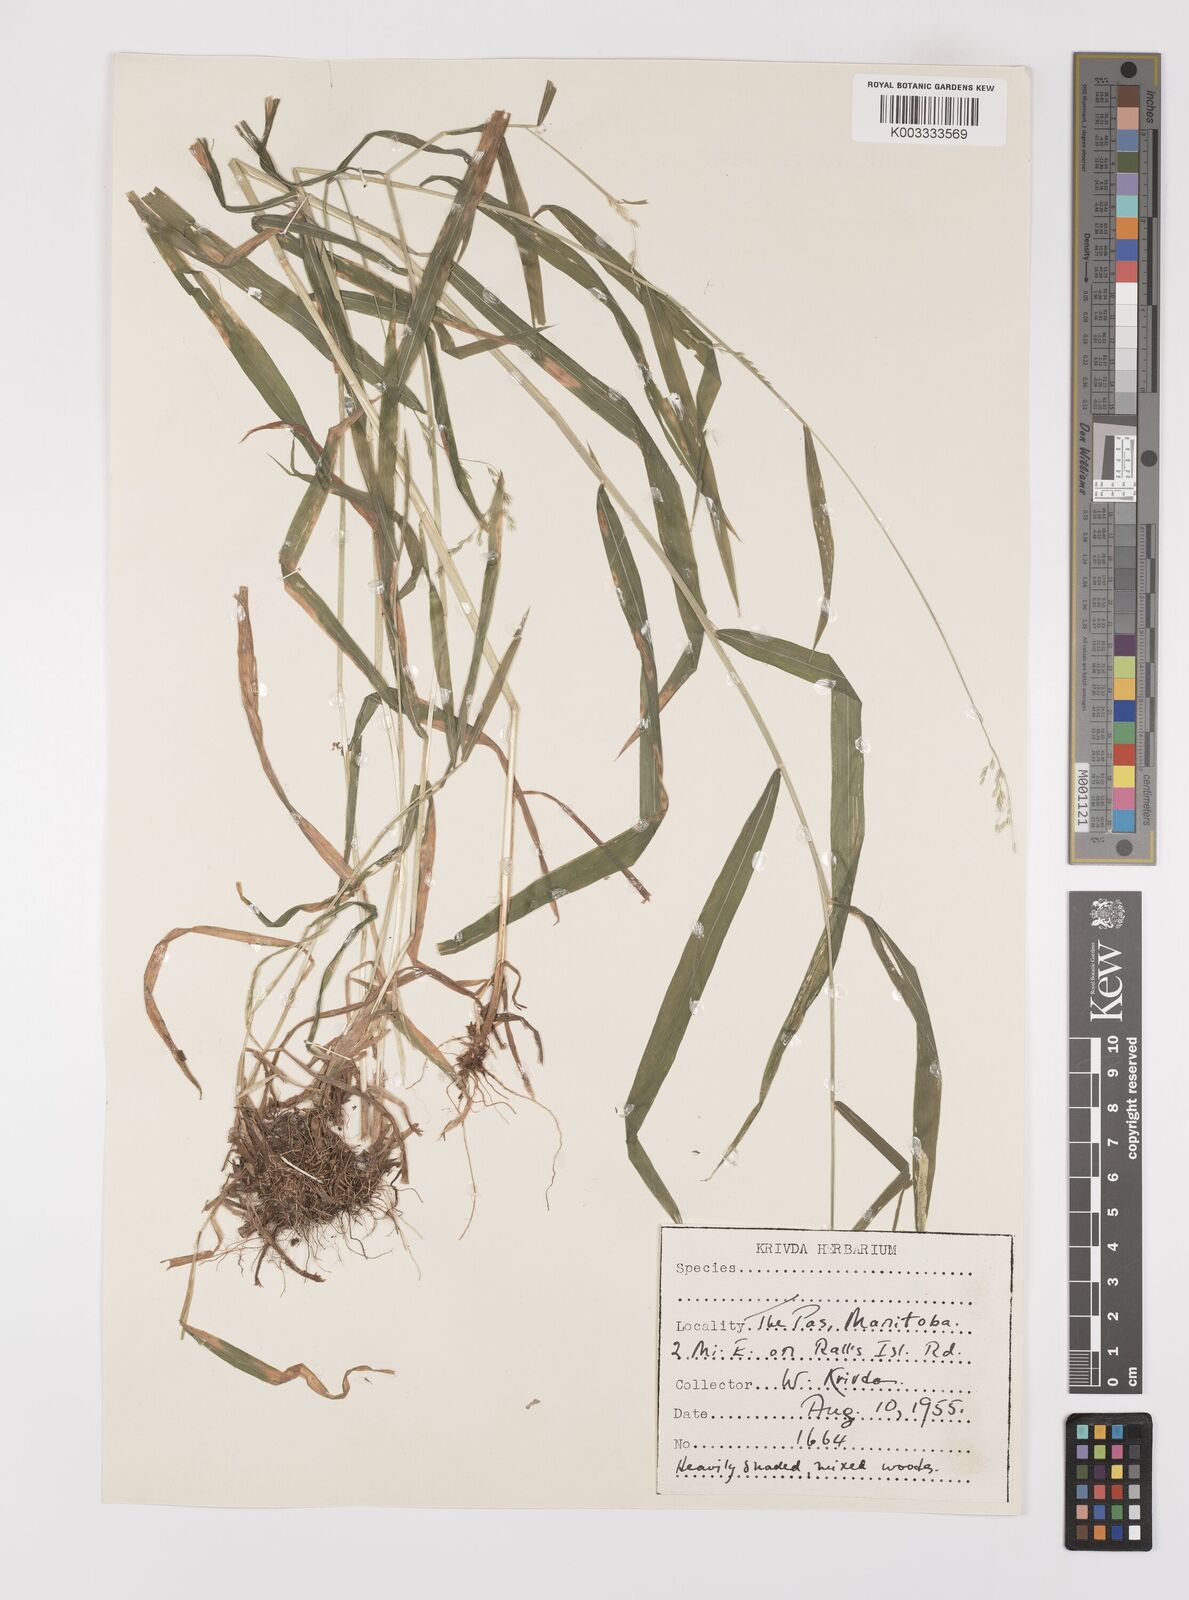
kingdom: Plantae
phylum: Tracheophyta
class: Liliopsida
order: Poales
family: Poaceae
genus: Cinna
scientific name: Cinna latifolia
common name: Drooping woodreed
